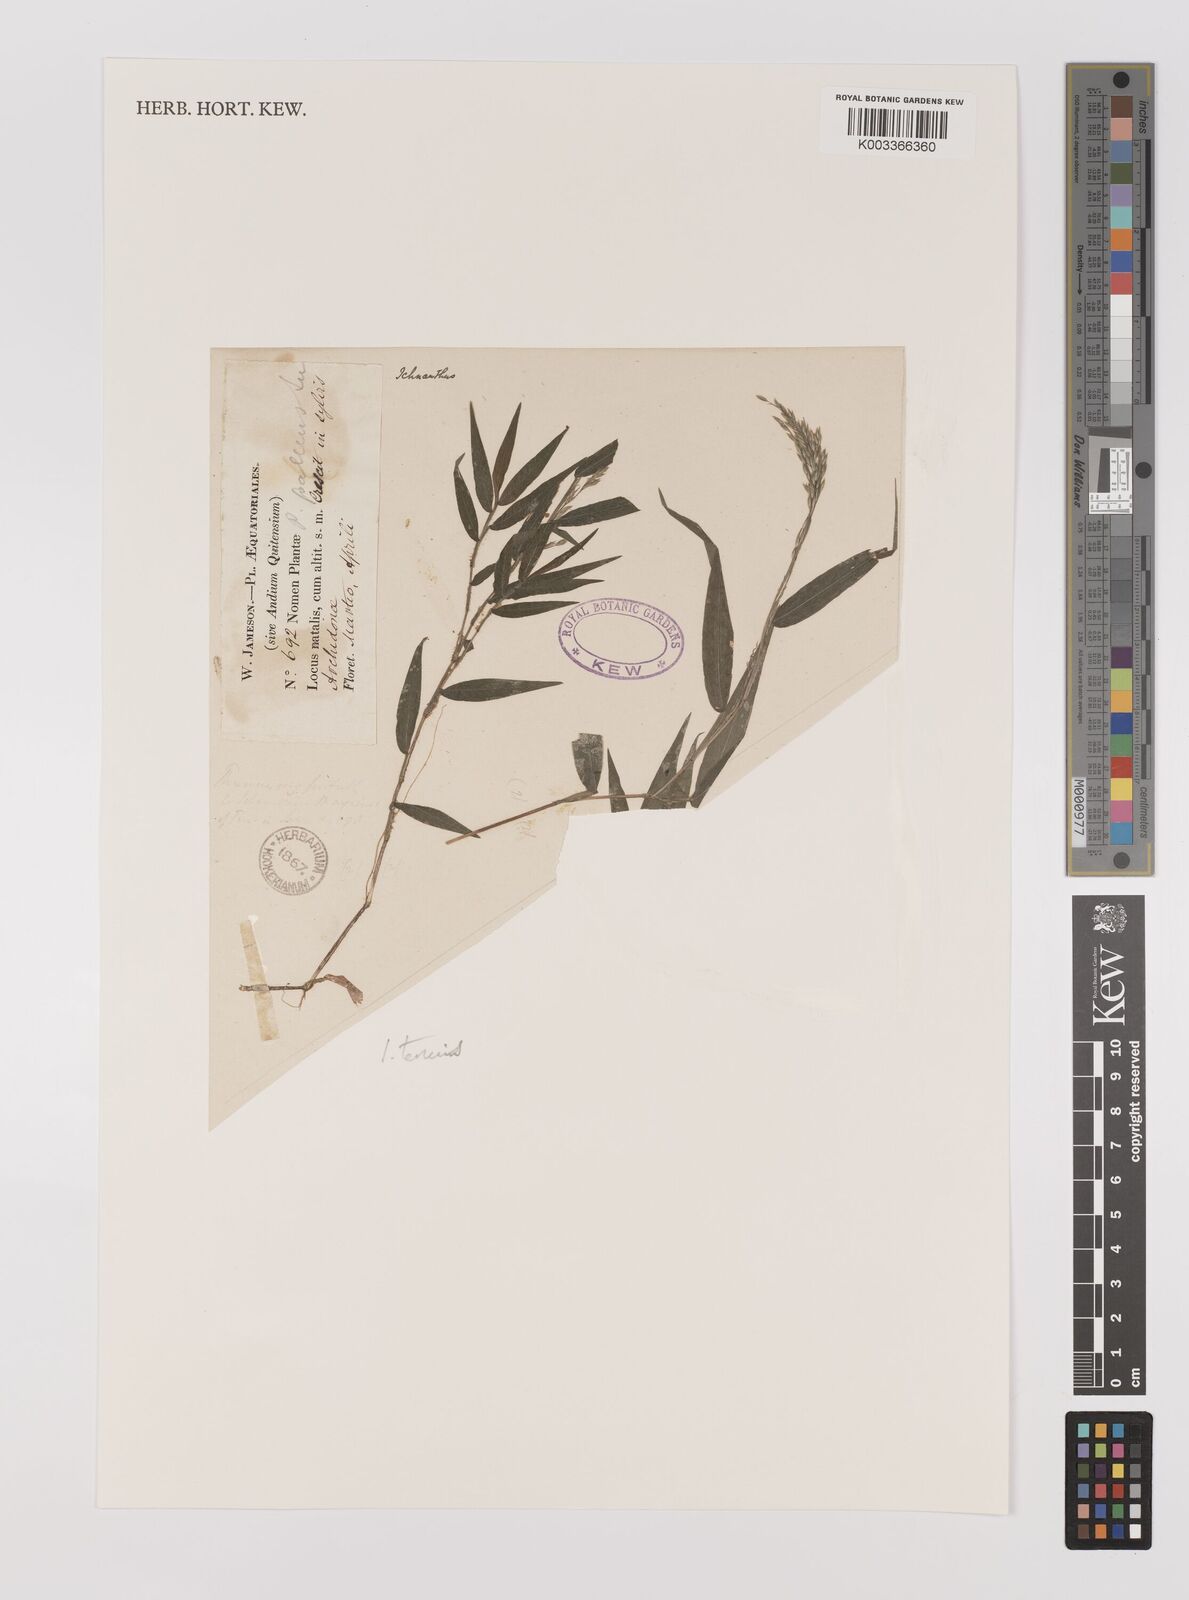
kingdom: Plantae
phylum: Tracheophyta
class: Liliopsida
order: Poales
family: Poaceae
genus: Ichnanthus
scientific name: Ichnanthus tenuis
